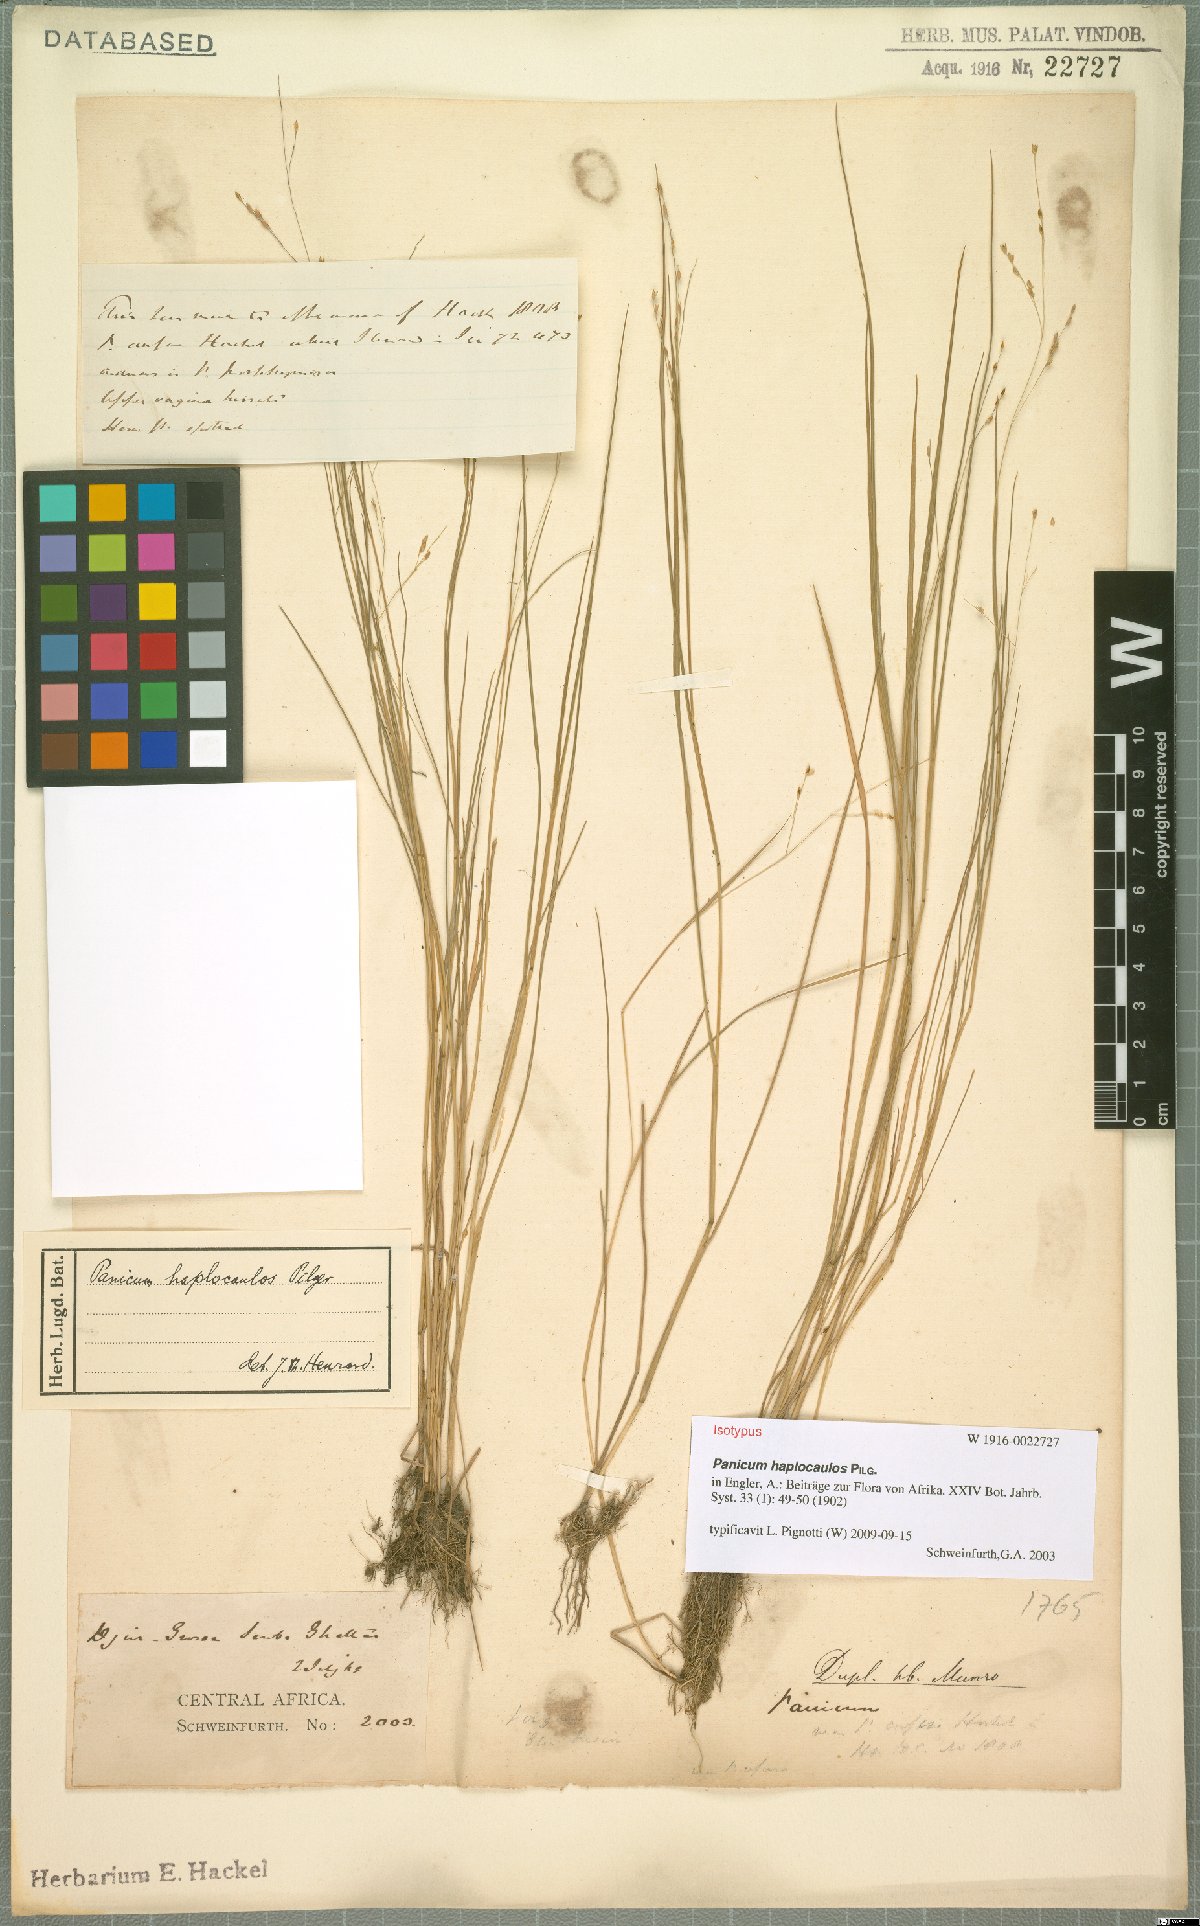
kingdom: Plantae
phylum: Tracheophyta
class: Liliopsida
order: Poales
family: Poaceae
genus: Panicum
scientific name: Panicum haplocaulos
